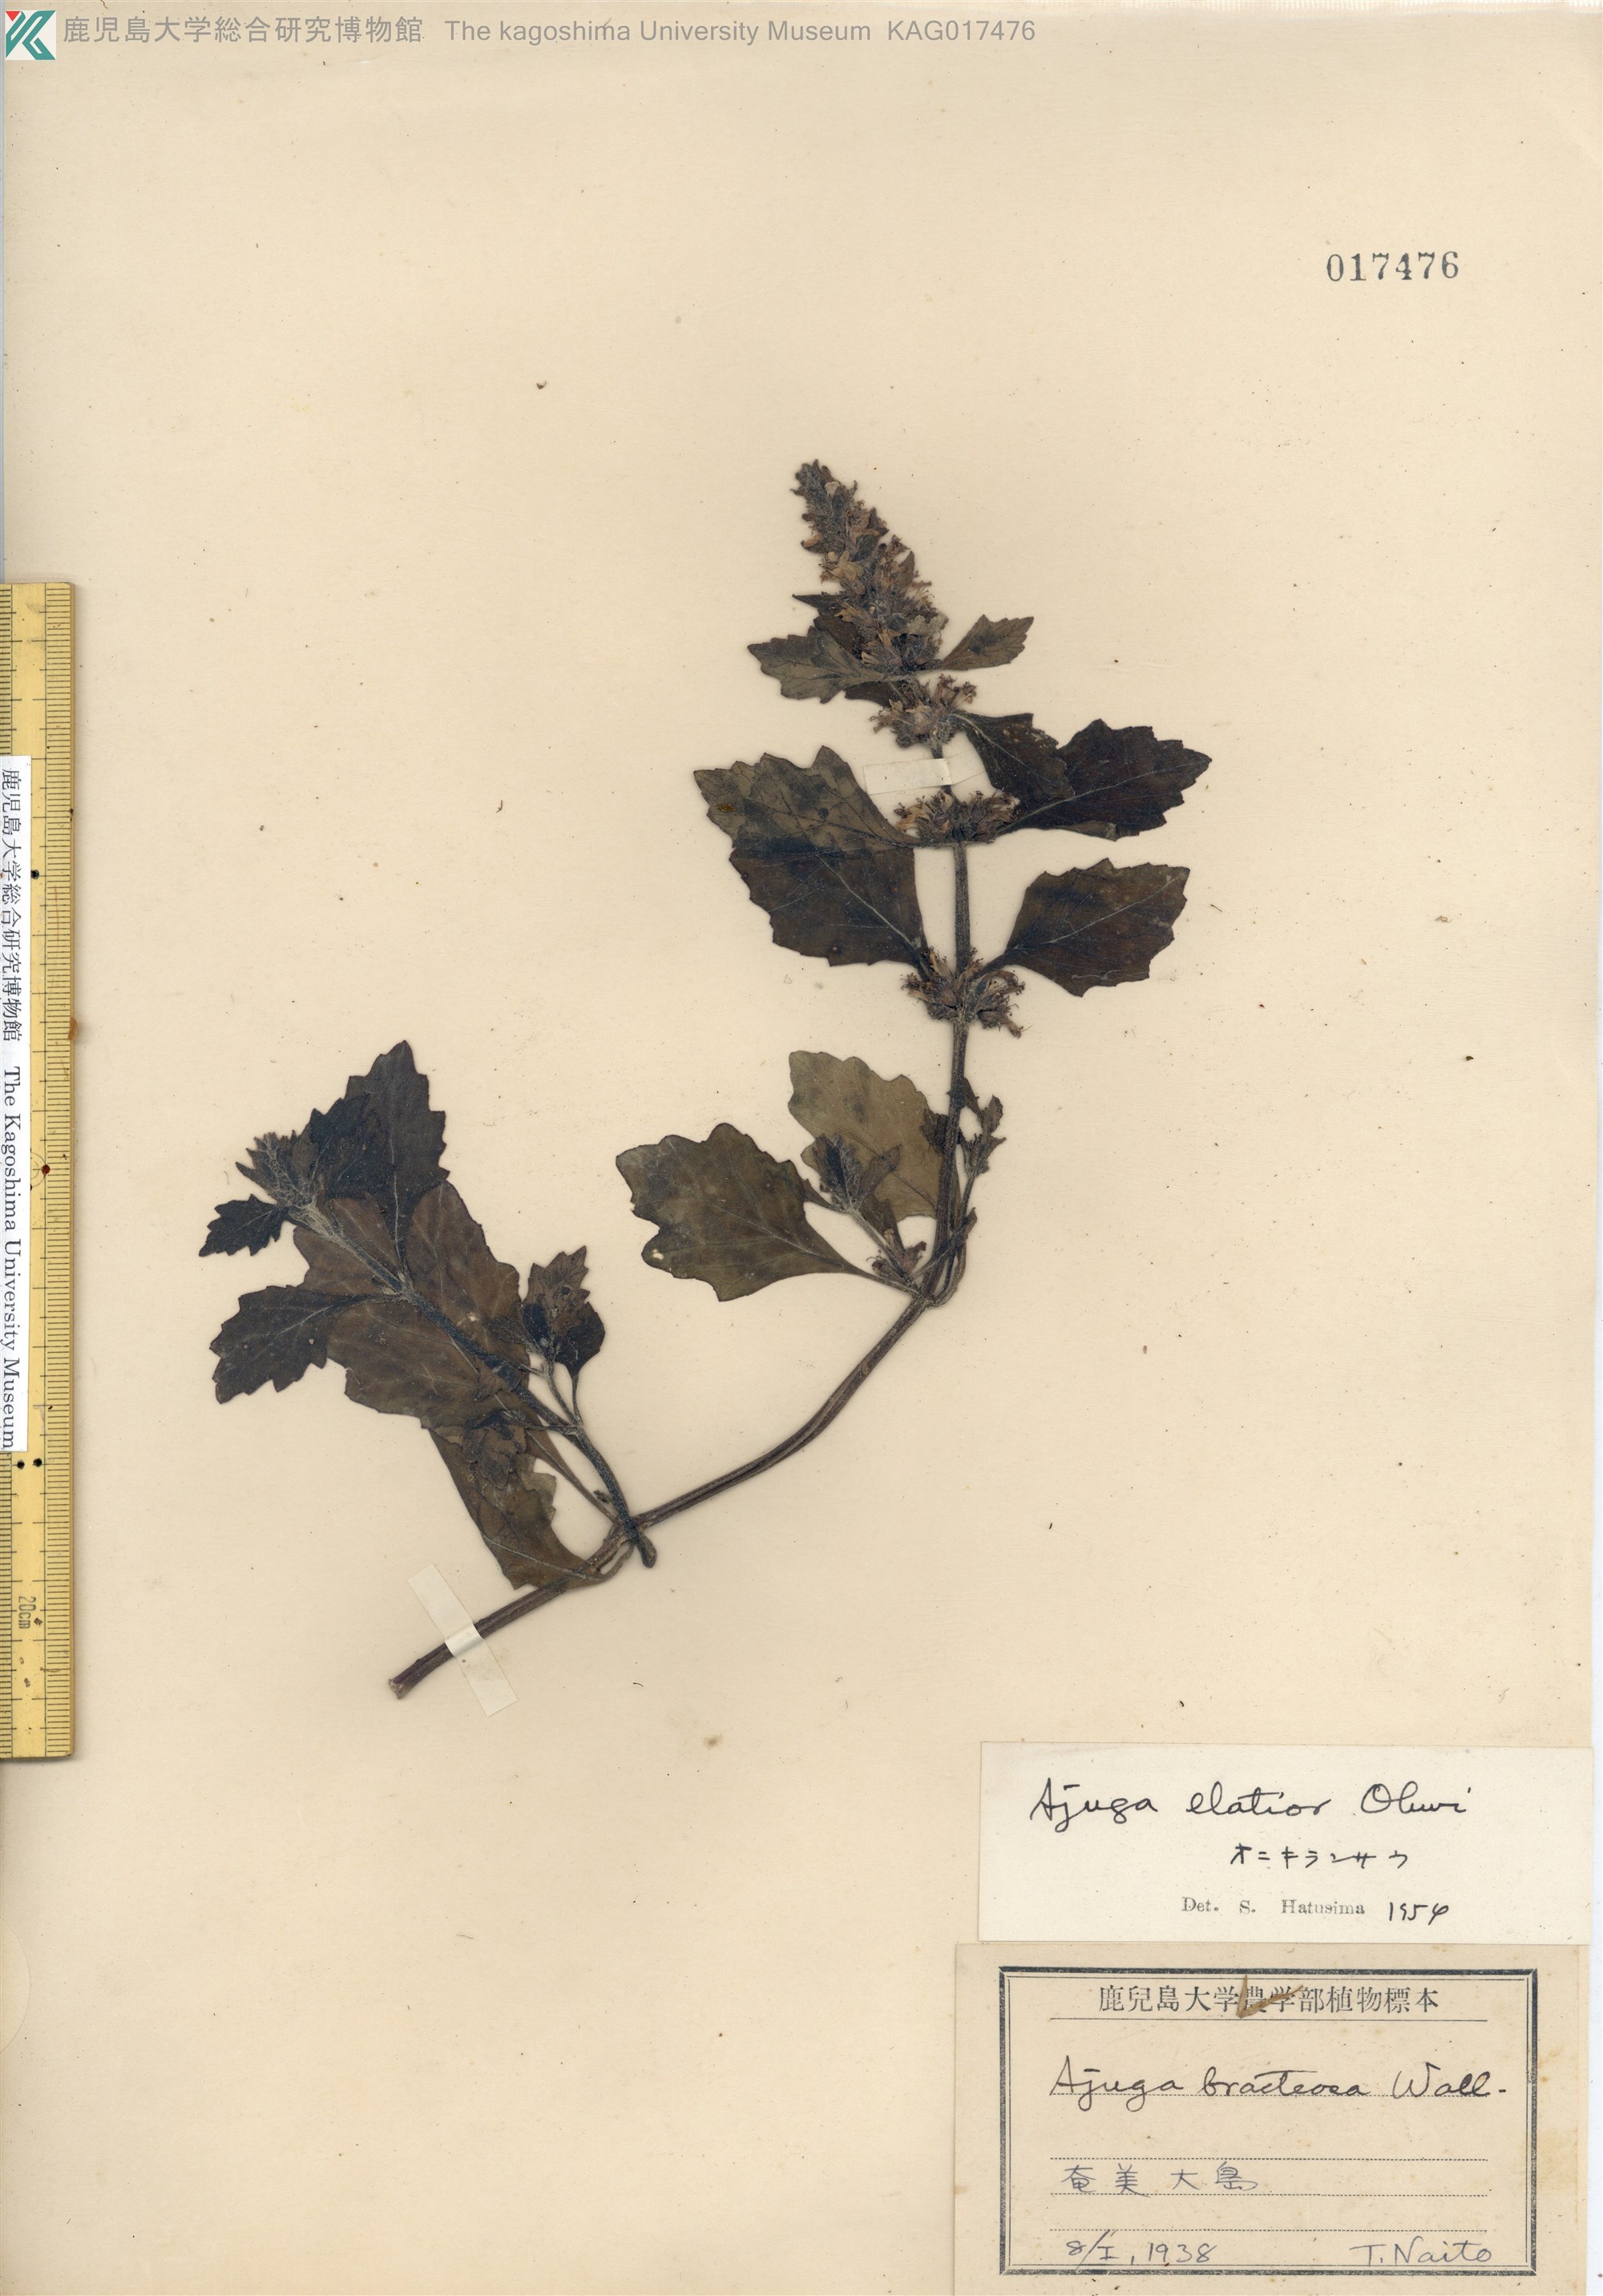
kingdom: Plantae
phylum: Tracheophyta
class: Magnoliopsida
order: Lamiales
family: Lamiaceae
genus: Ajuga
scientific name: Ajuga dictyocarpa
